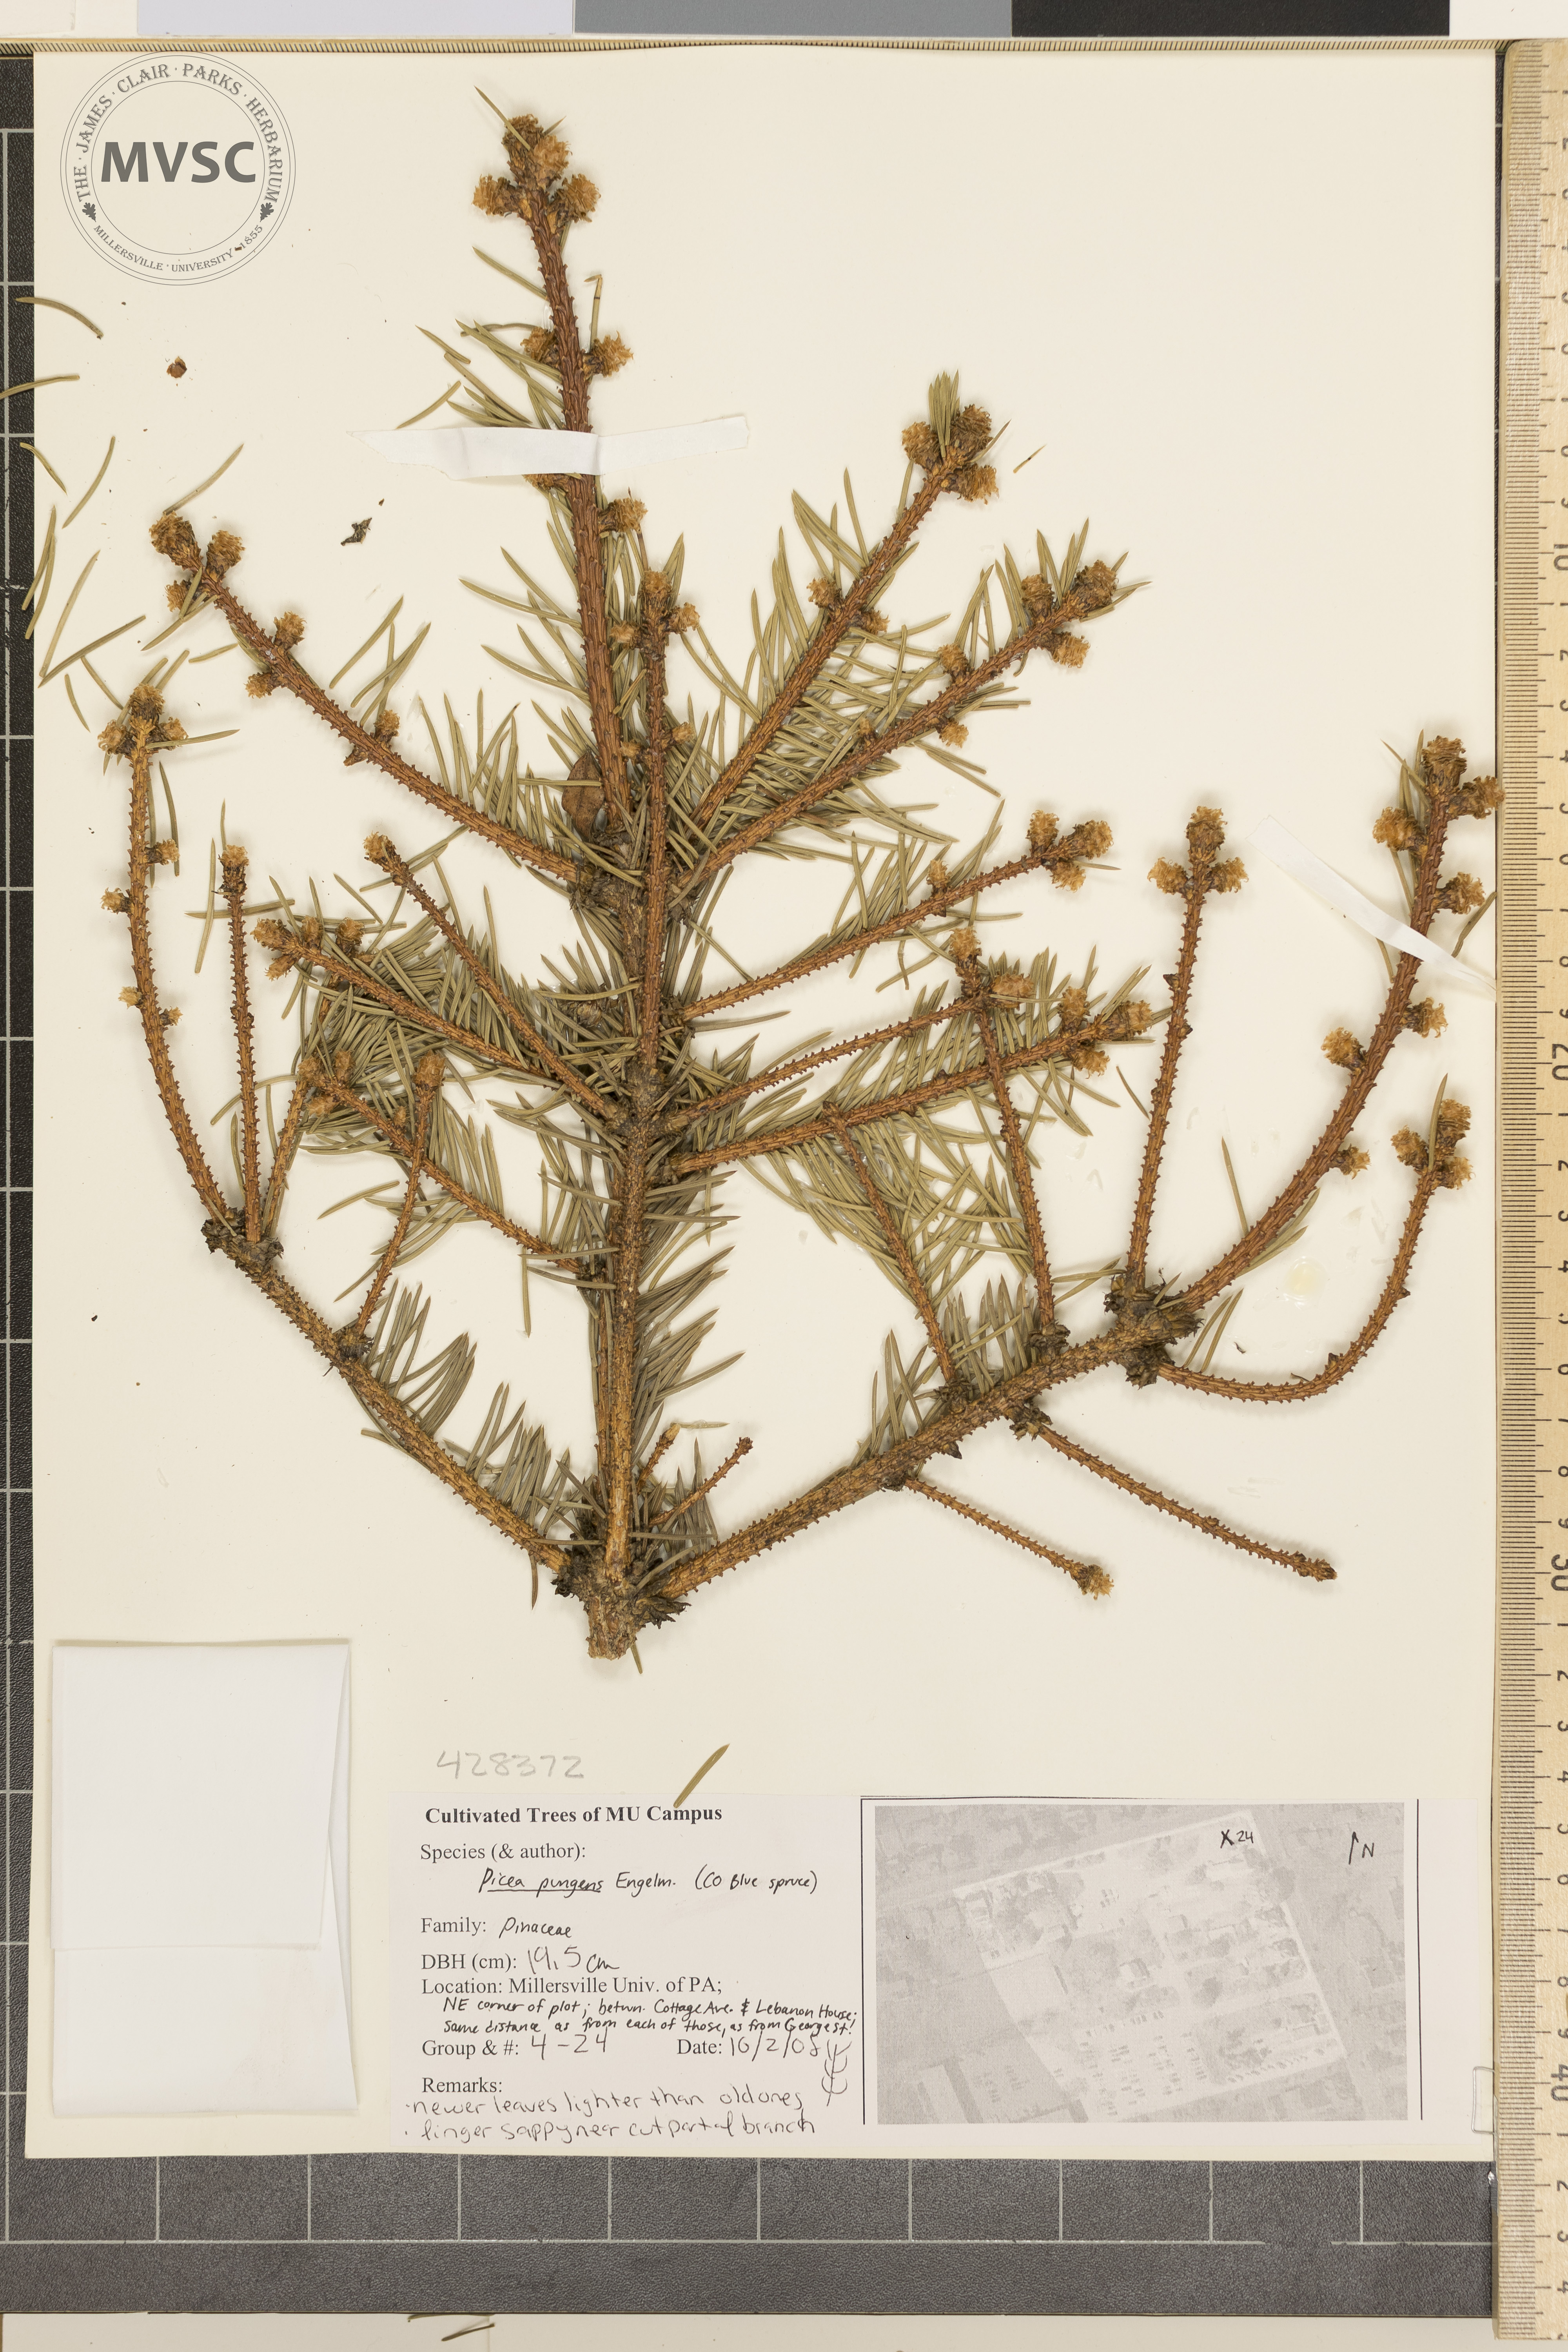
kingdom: Plantae
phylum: Tracheophyta
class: Pinopsida
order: Pinales
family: Pinaceae
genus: Picea
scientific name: Picea pungens
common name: Colorado Blue Spruce
